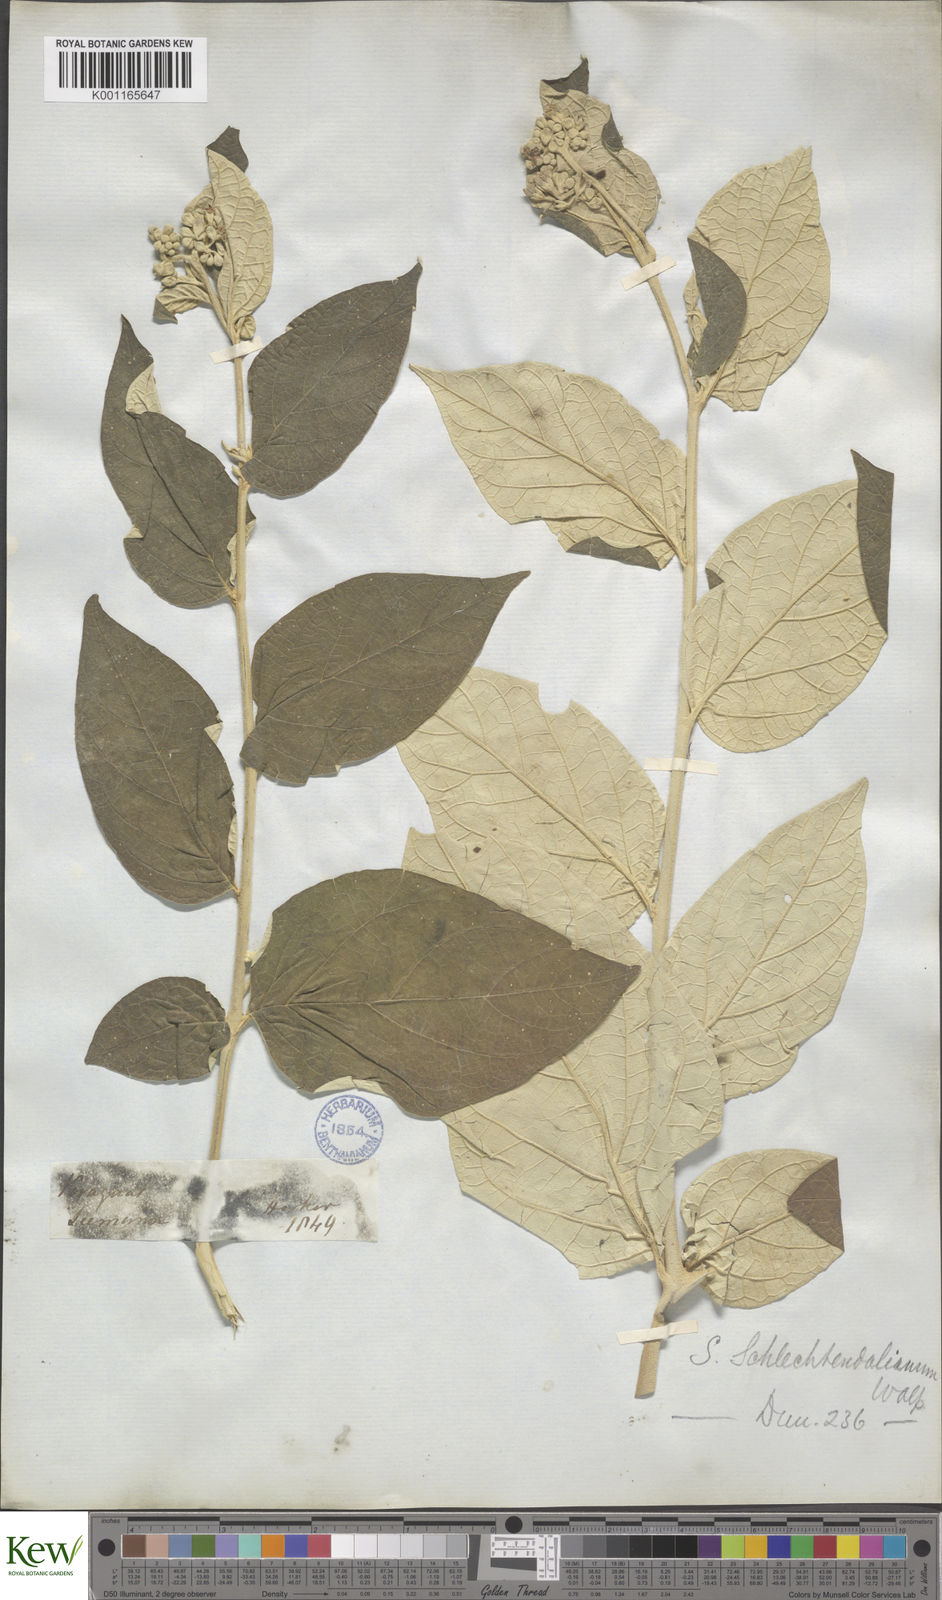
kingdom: Plantae
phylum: Tracheophyta
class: Magnoliopsida
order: Solanales
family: Solanaceae
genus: Solanum
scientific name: Solanum schlechtendalianum
